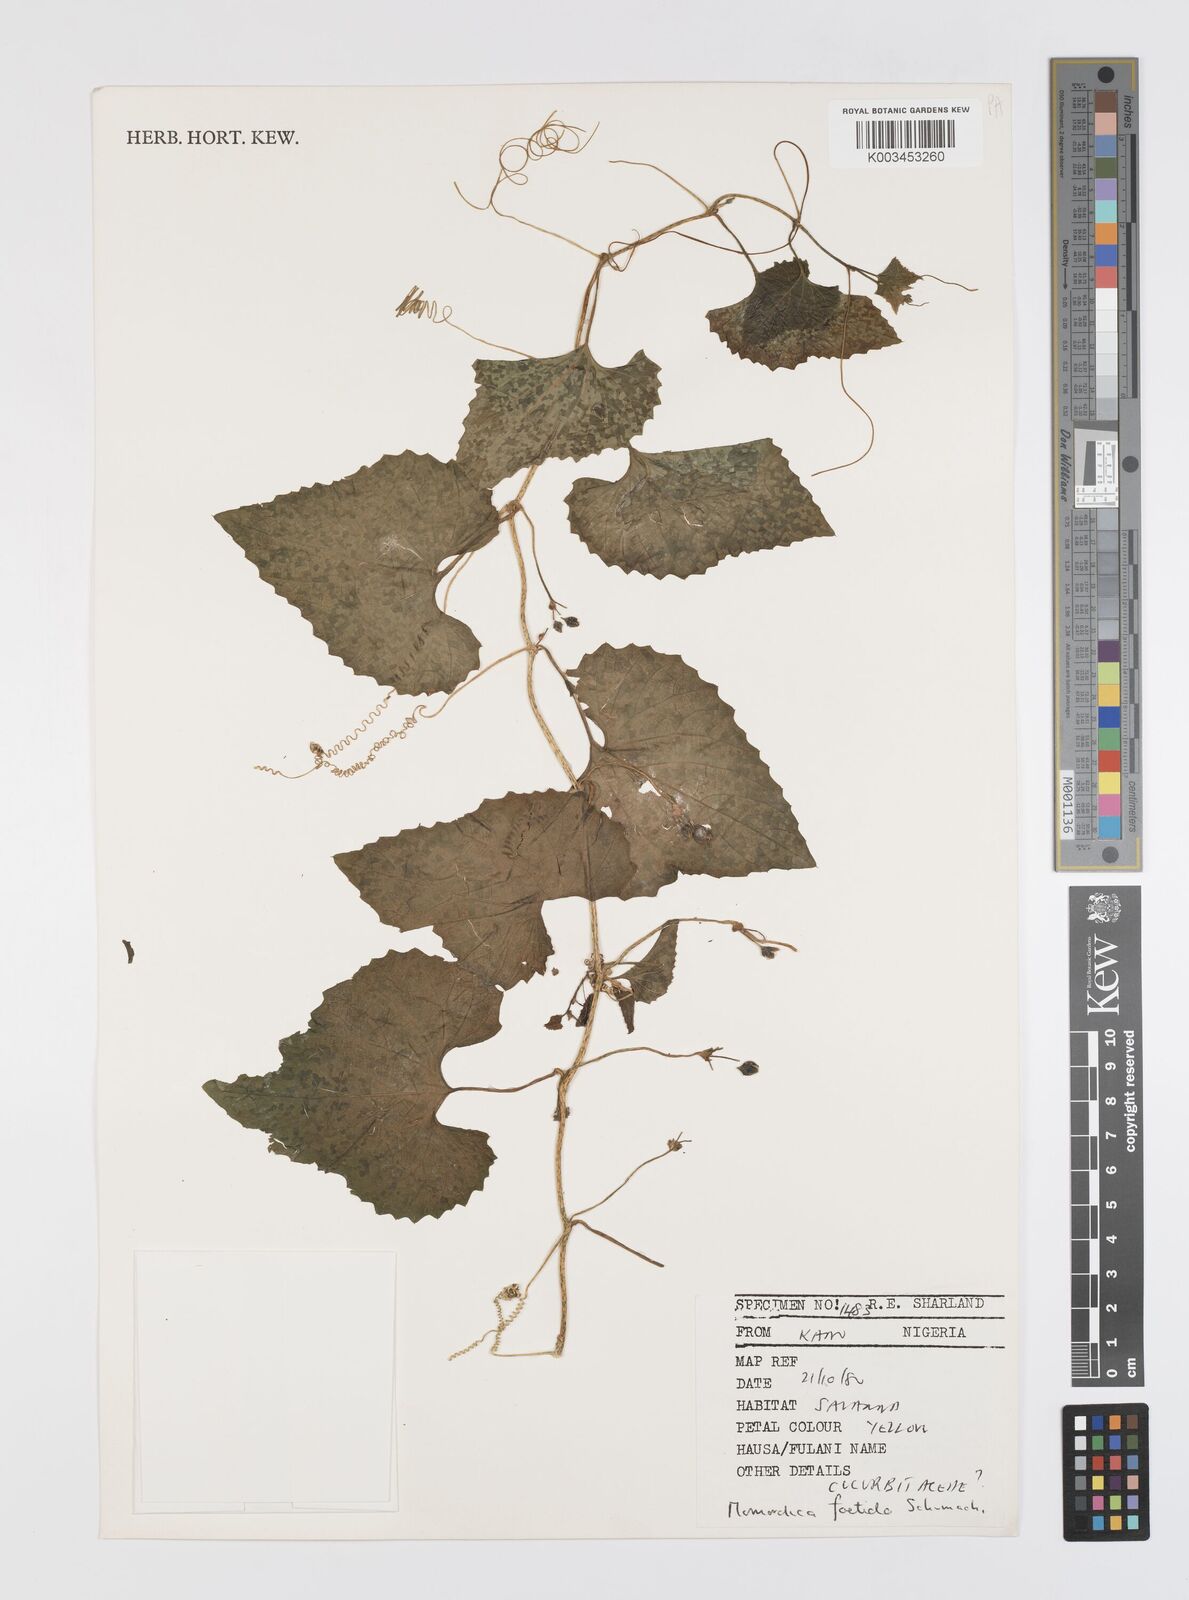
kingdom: Plantae
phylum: Tracheophyta
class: Magnoliopsida
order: Cucurbitales
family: Cucurbitaceae
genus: Momordica
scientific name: Momordica foetida
